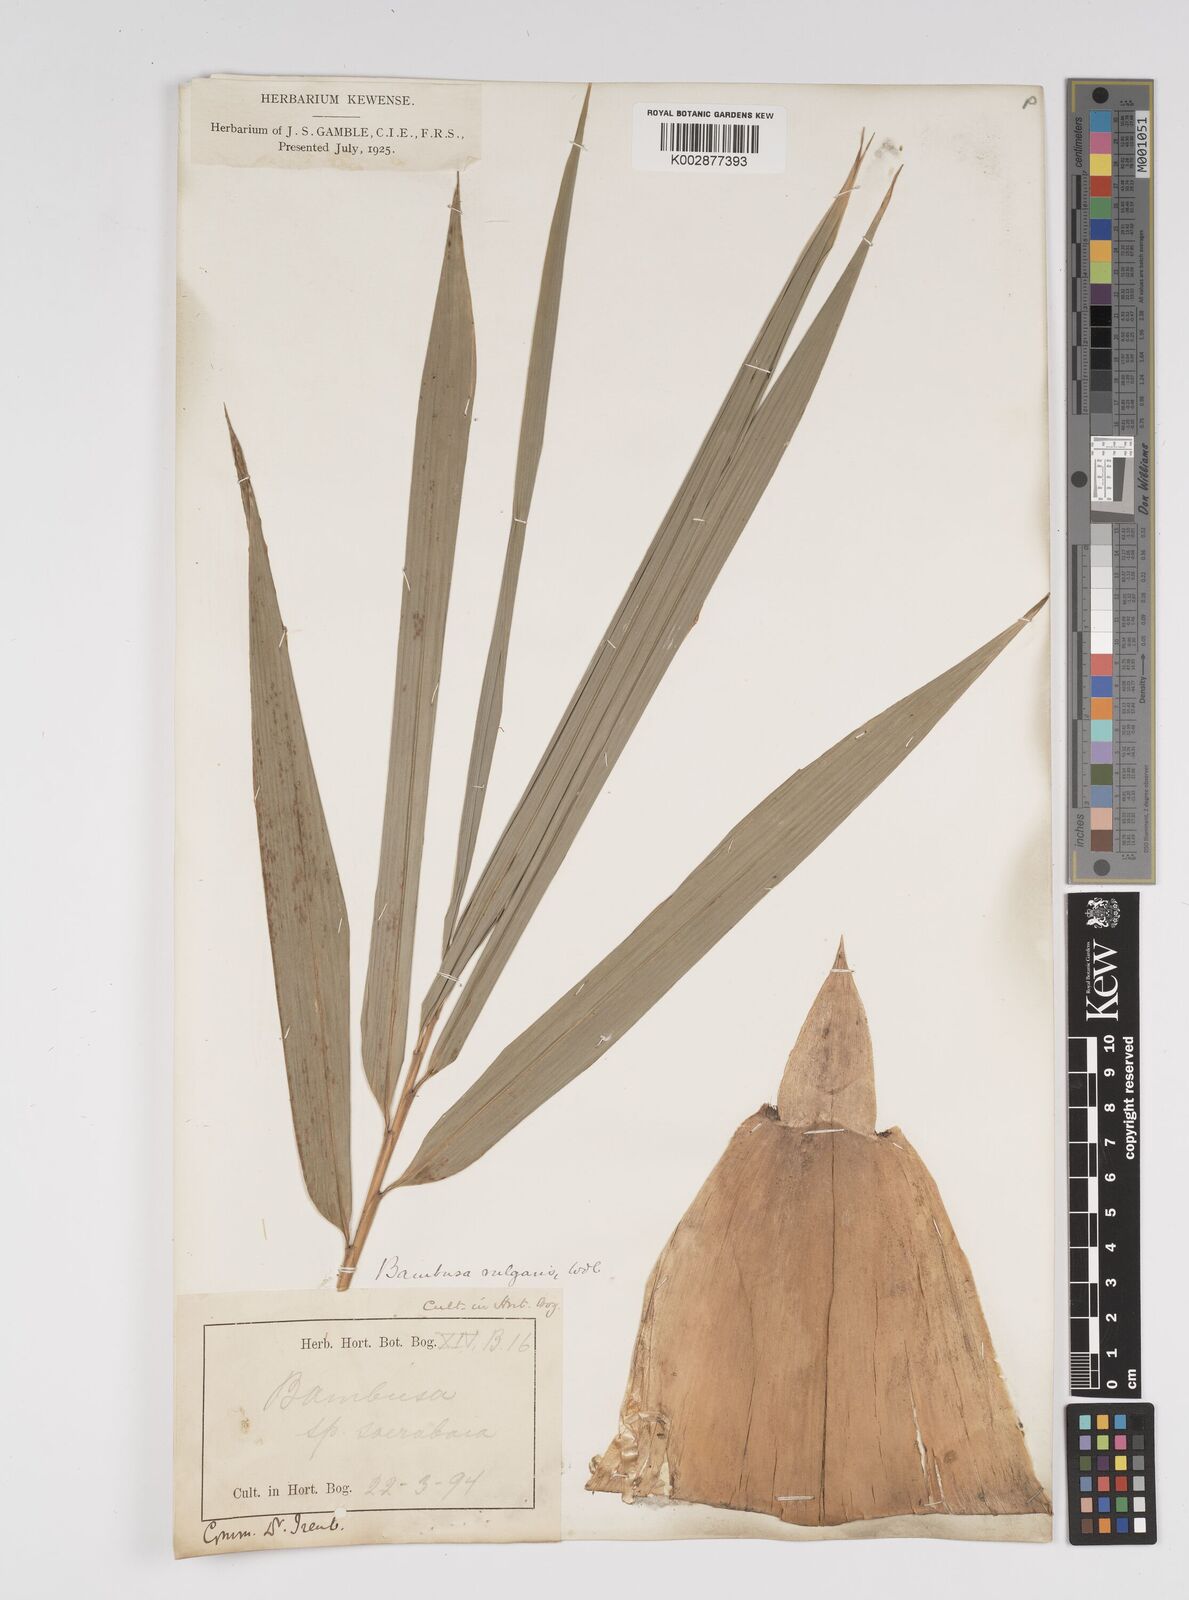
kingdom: Plantae
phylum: Tracheophyta
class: Liliopsida
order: Poales
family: Poaceae
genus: Bambusa
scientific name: Bambusa vulgaris
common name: Common bamboo
